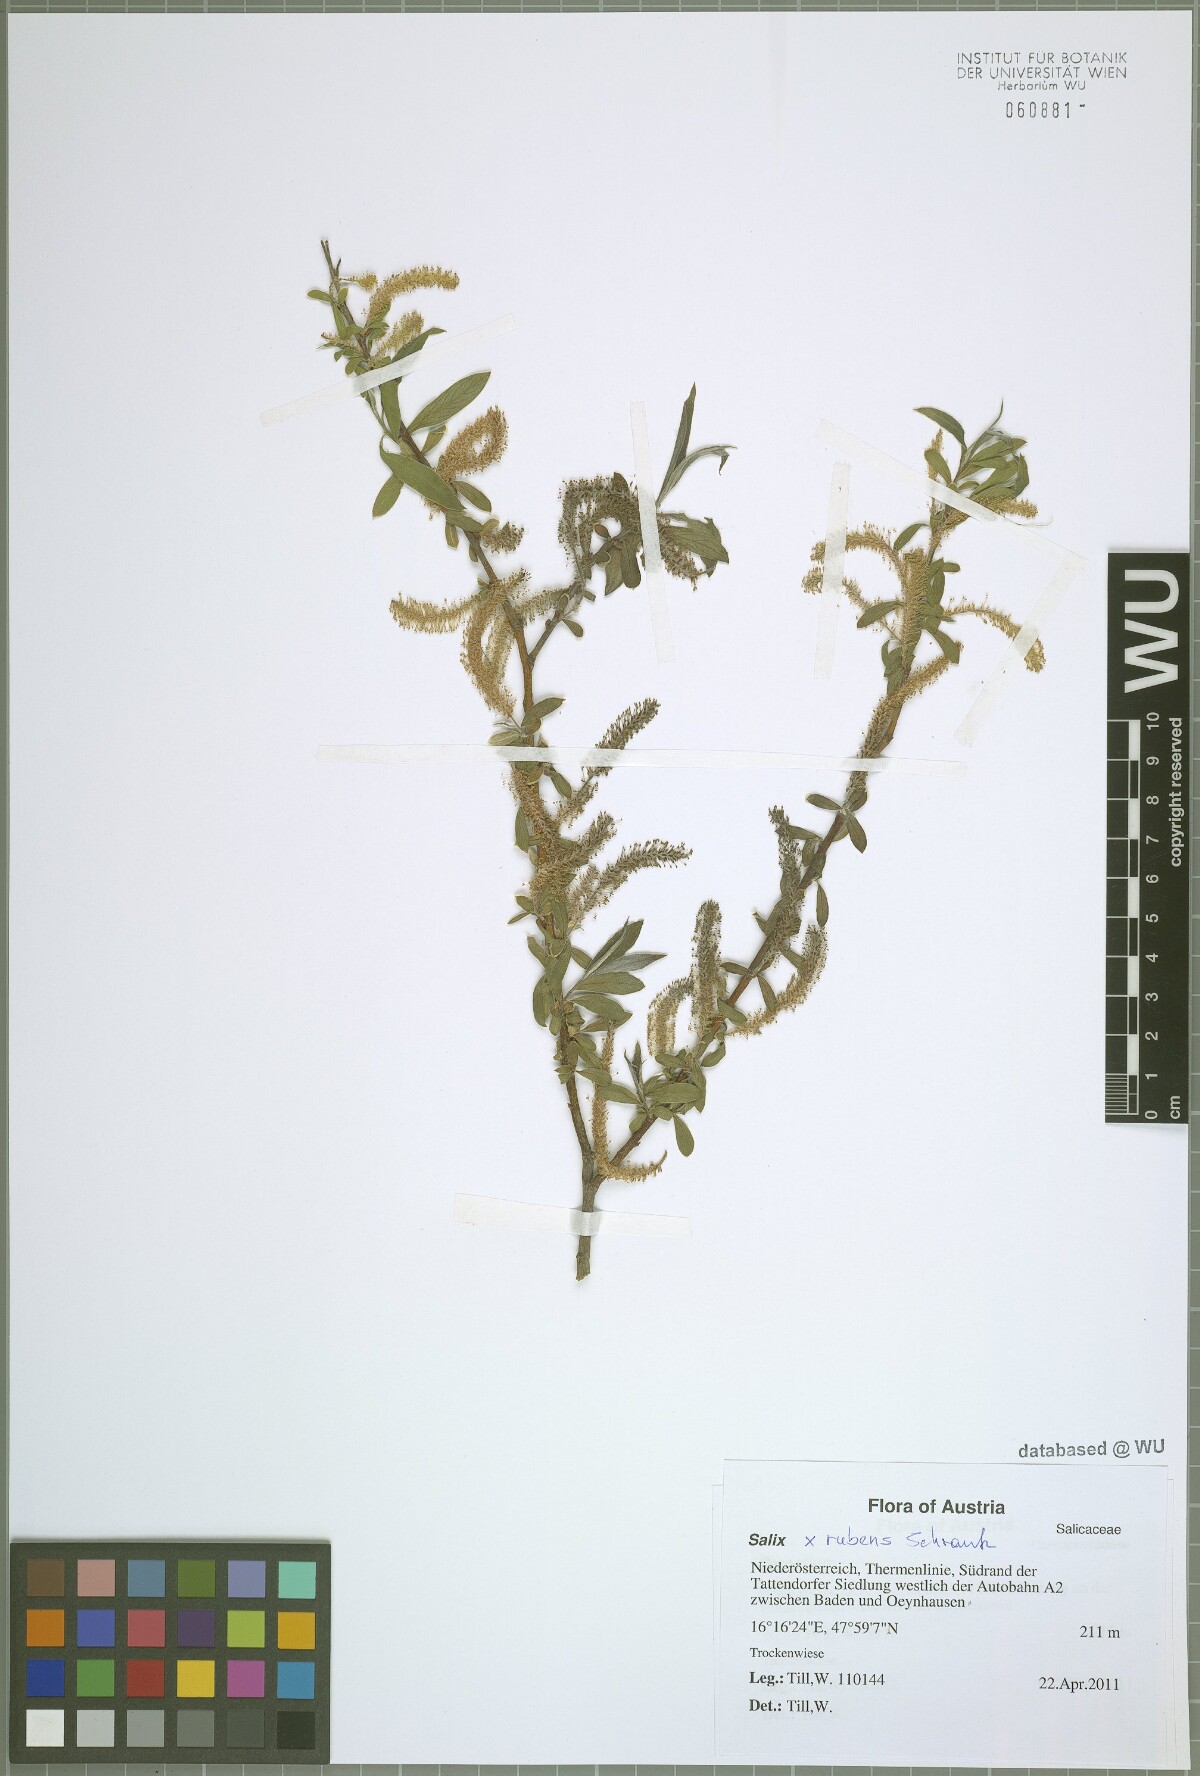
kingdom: Plantae
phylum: Tracheophyta
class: Magnoliopsida
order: Malpighiales
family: Salicaceae
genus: Salix
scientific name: Salix rubens
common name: Hybrid crack willow
